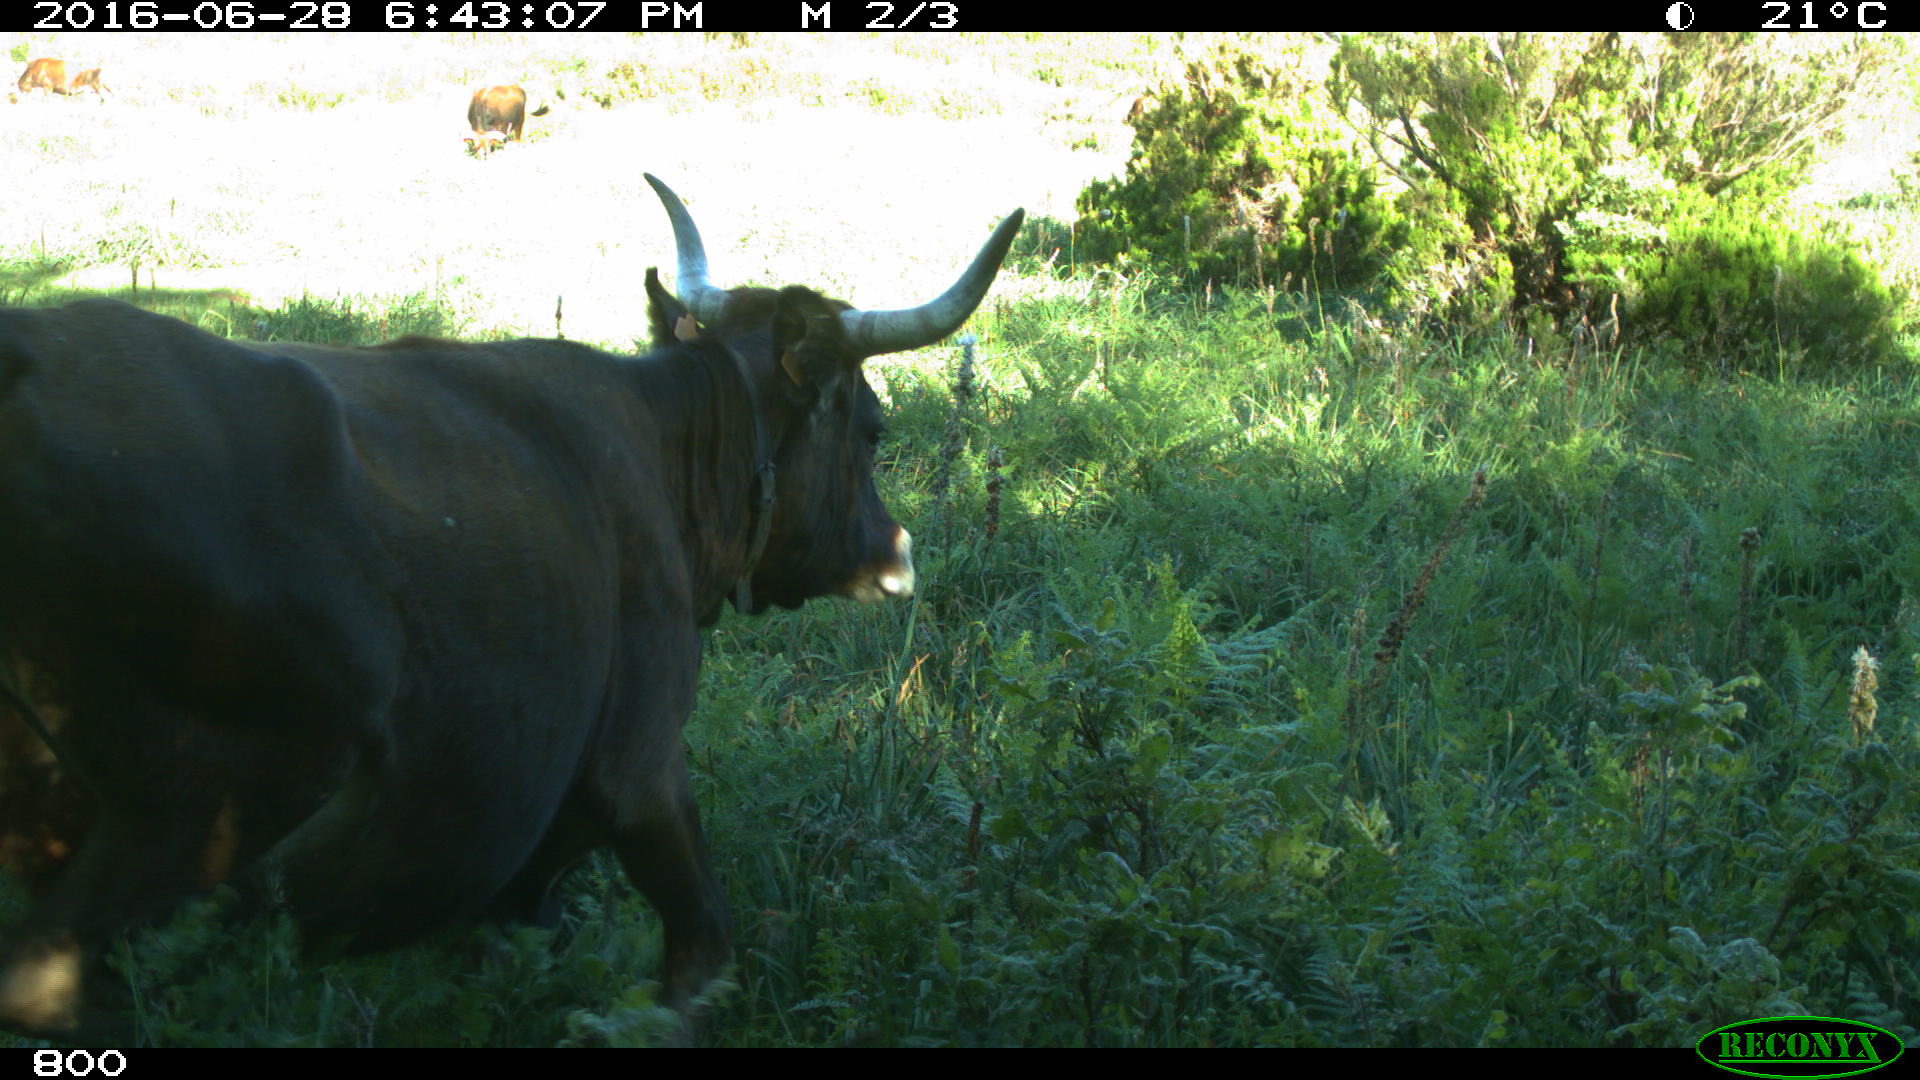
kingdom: Animalia
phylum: Chordata
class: Mammalia
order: Artiodactyla
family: Bovidae
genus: Bos
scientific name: Bos taurus
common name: Domesticated cattle
